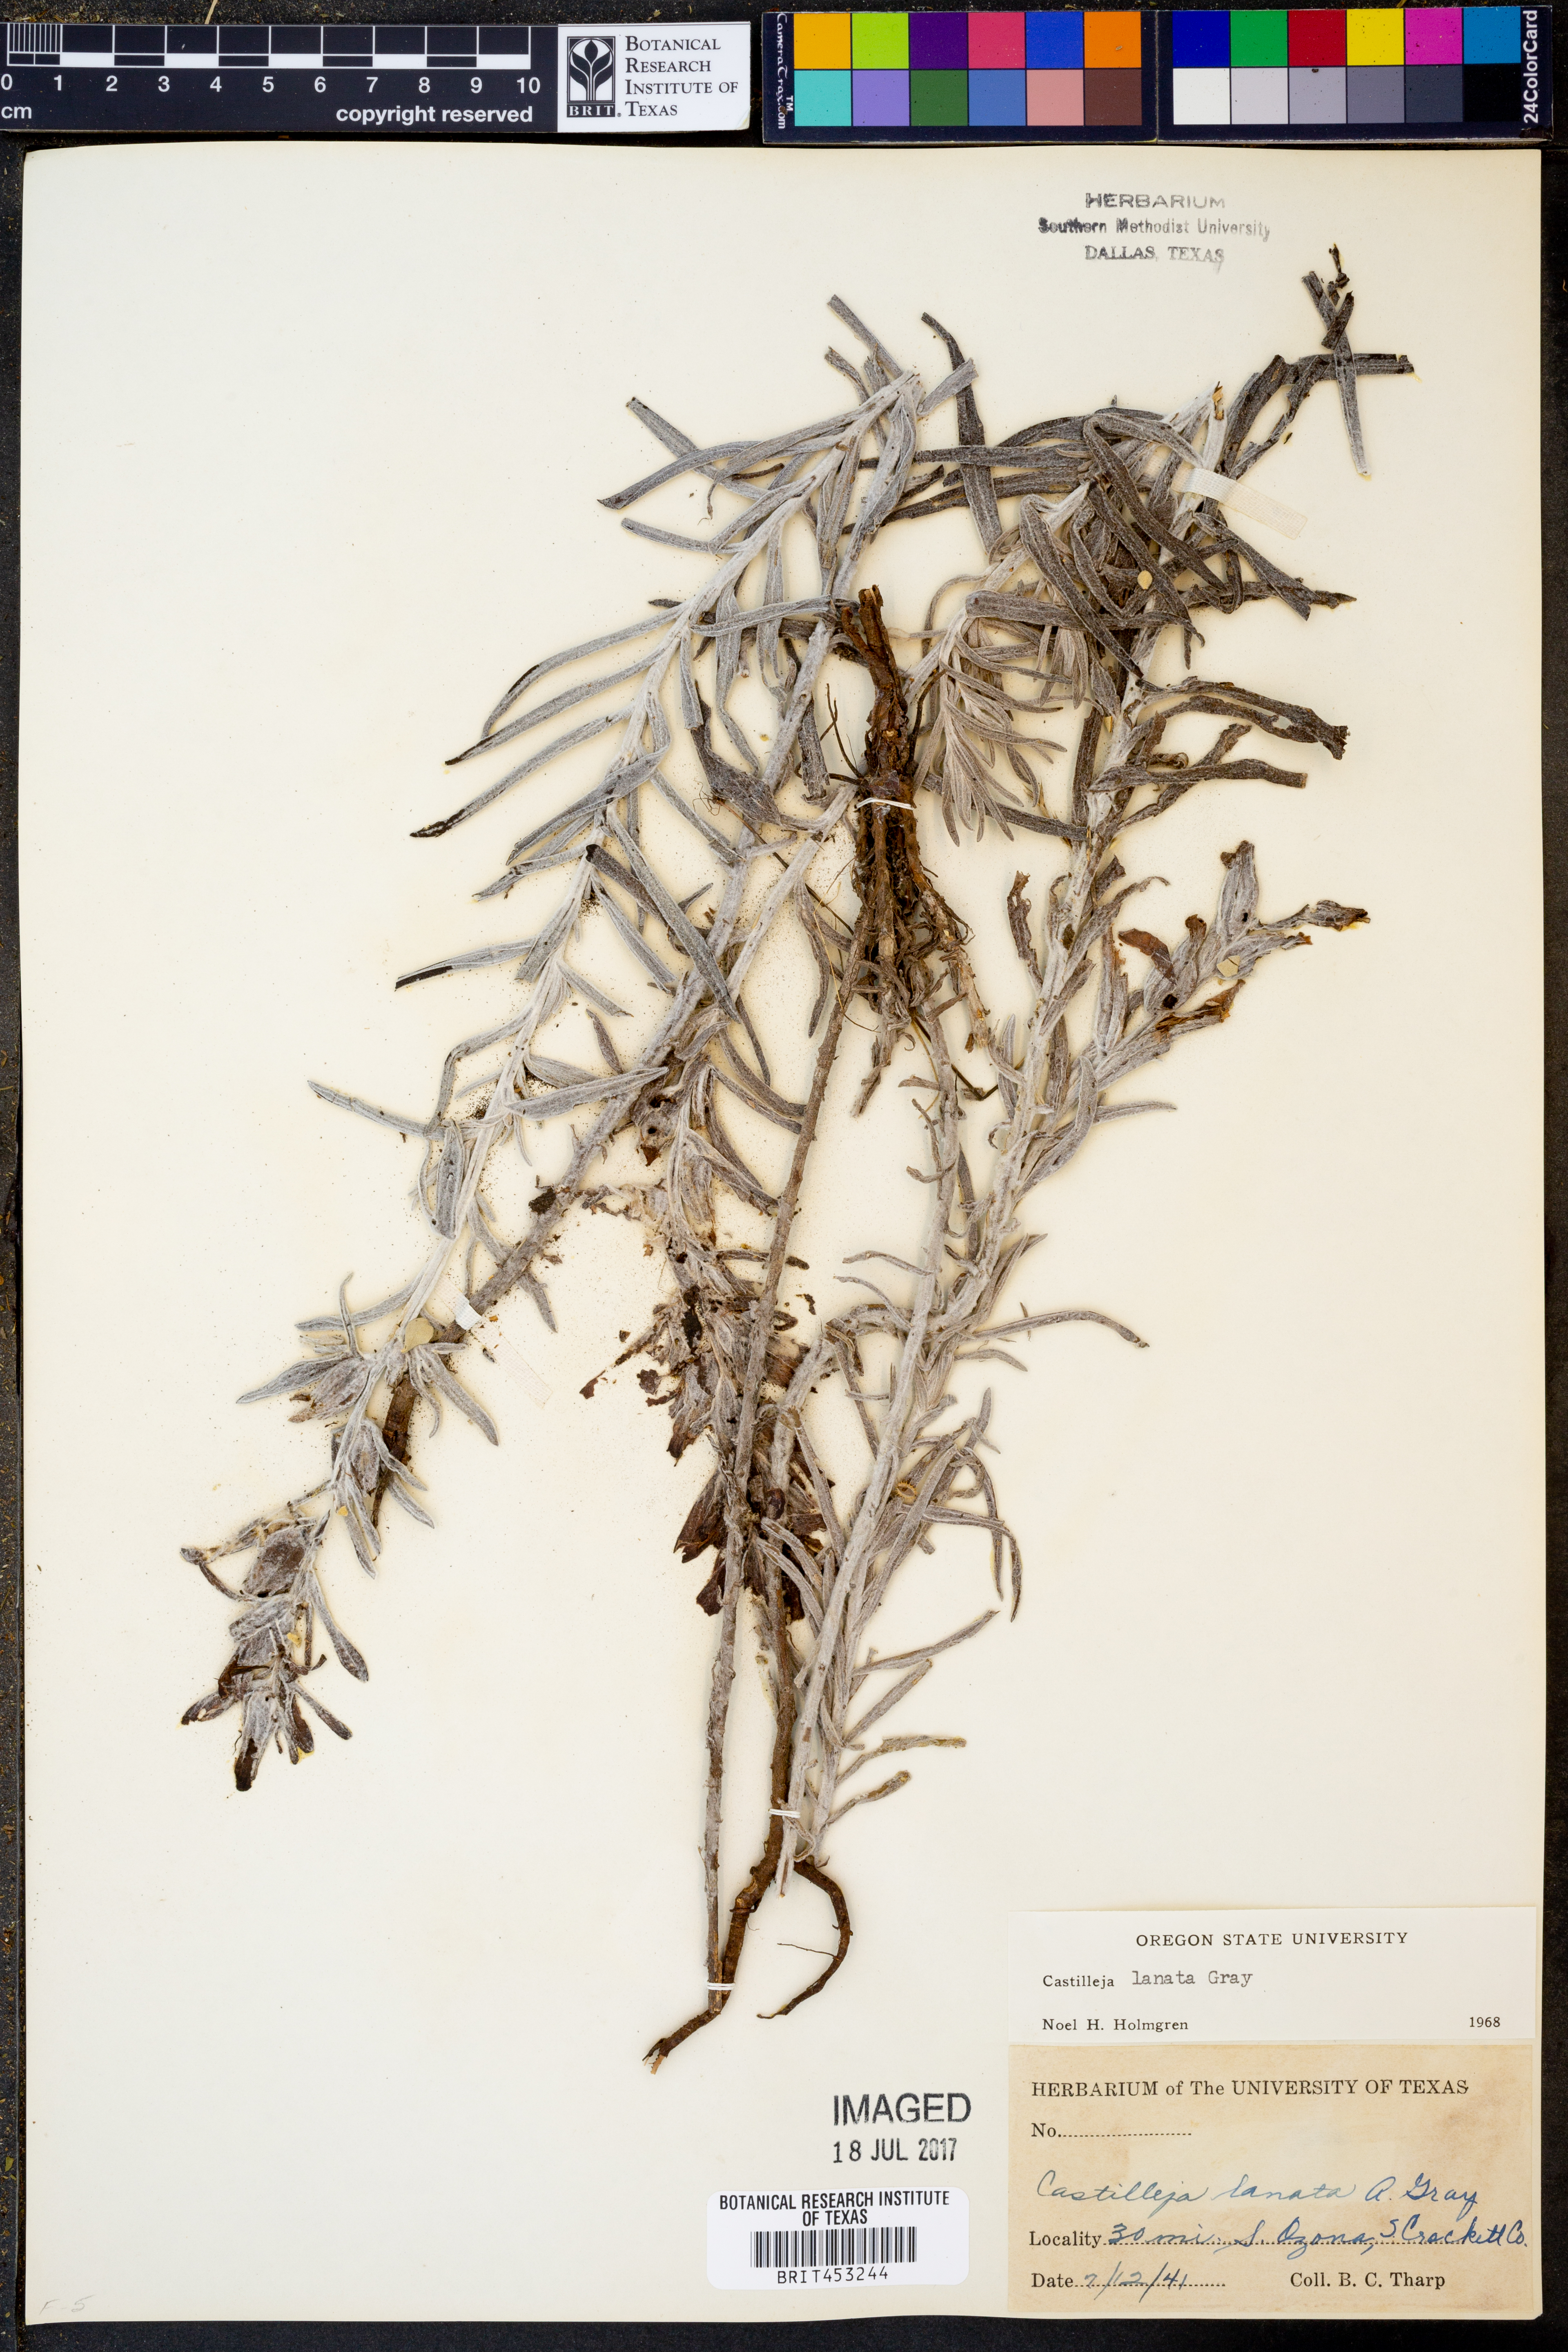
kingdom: Plantae
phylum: Tracheophyta
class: Magnoliopsida
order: Lamiales
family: Orobanchaceae
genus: Castilleja
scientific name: Castilleja lanata
